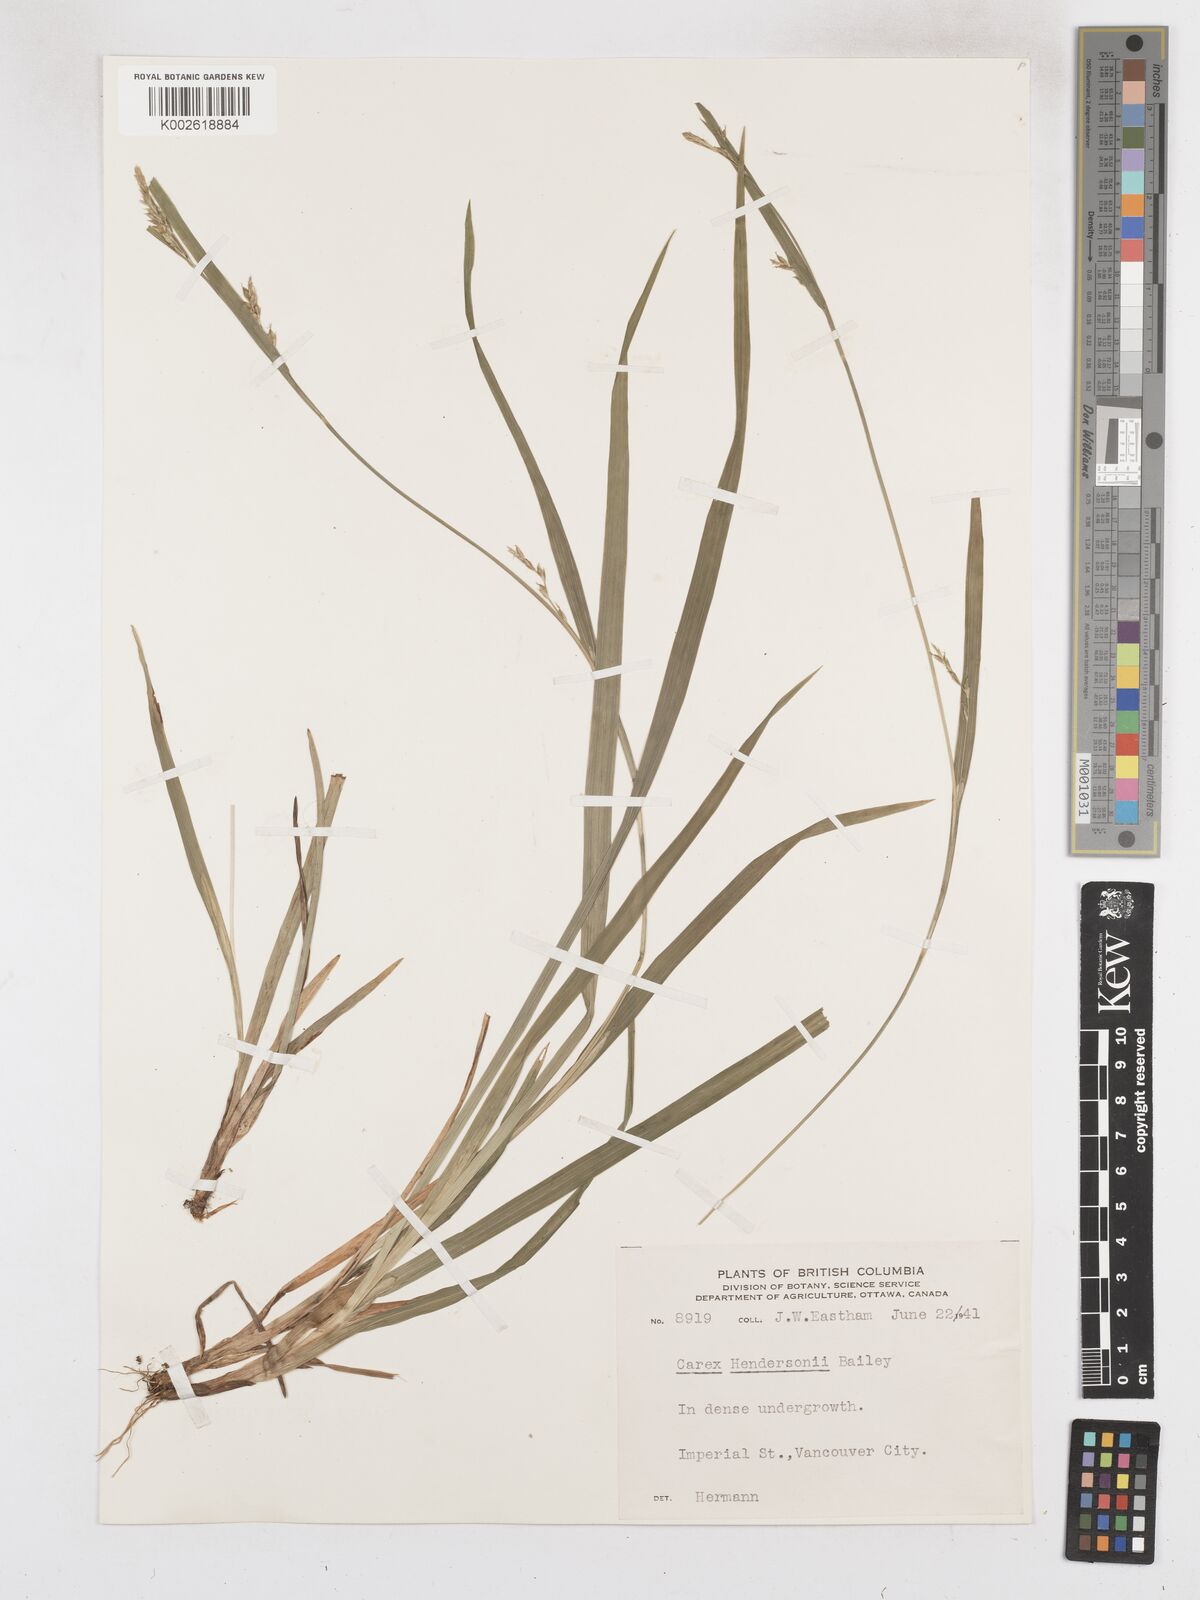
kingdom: Plantae
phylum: Tracheophyta
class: Liliopsida
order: Poales
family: Cyperaceae
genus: Carex
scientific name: Carex hendersonii
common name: Henderson's sedge
